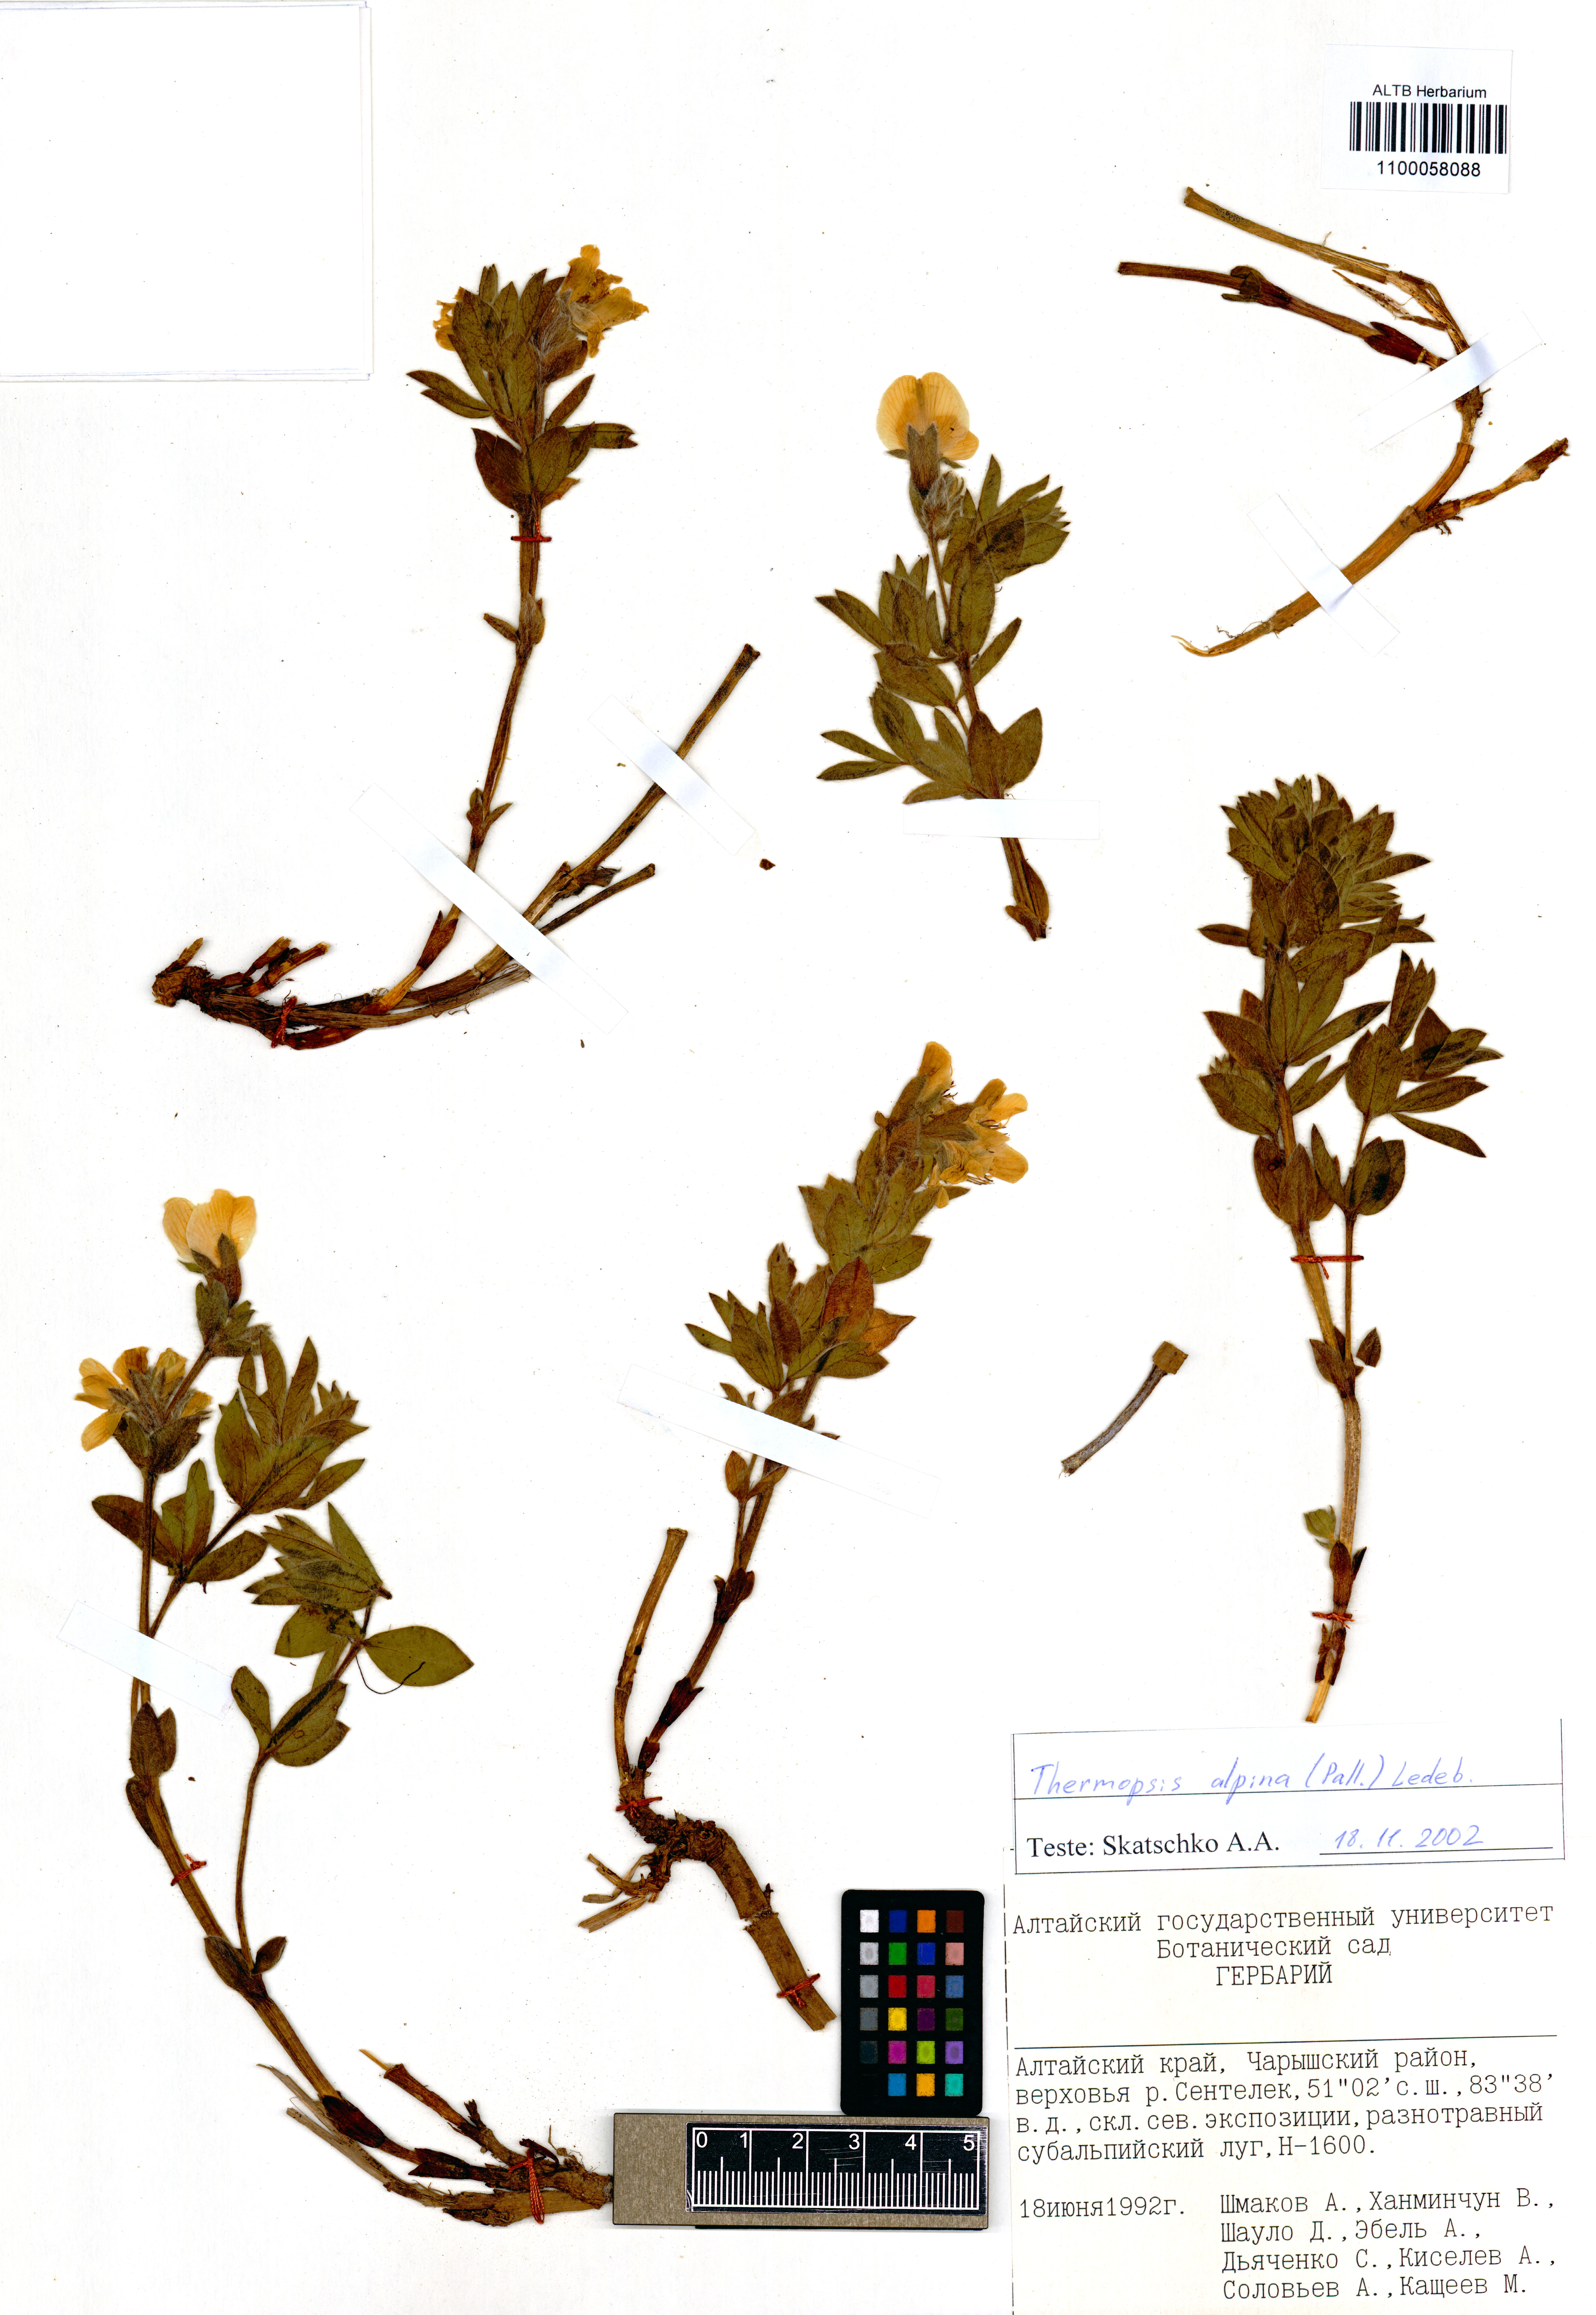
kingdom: Plantae
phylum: Tracheophyta
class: Magnoliopsida
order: Fabales
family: Fabaceae
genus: Thermopsis
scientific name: Thermopsis alpina
